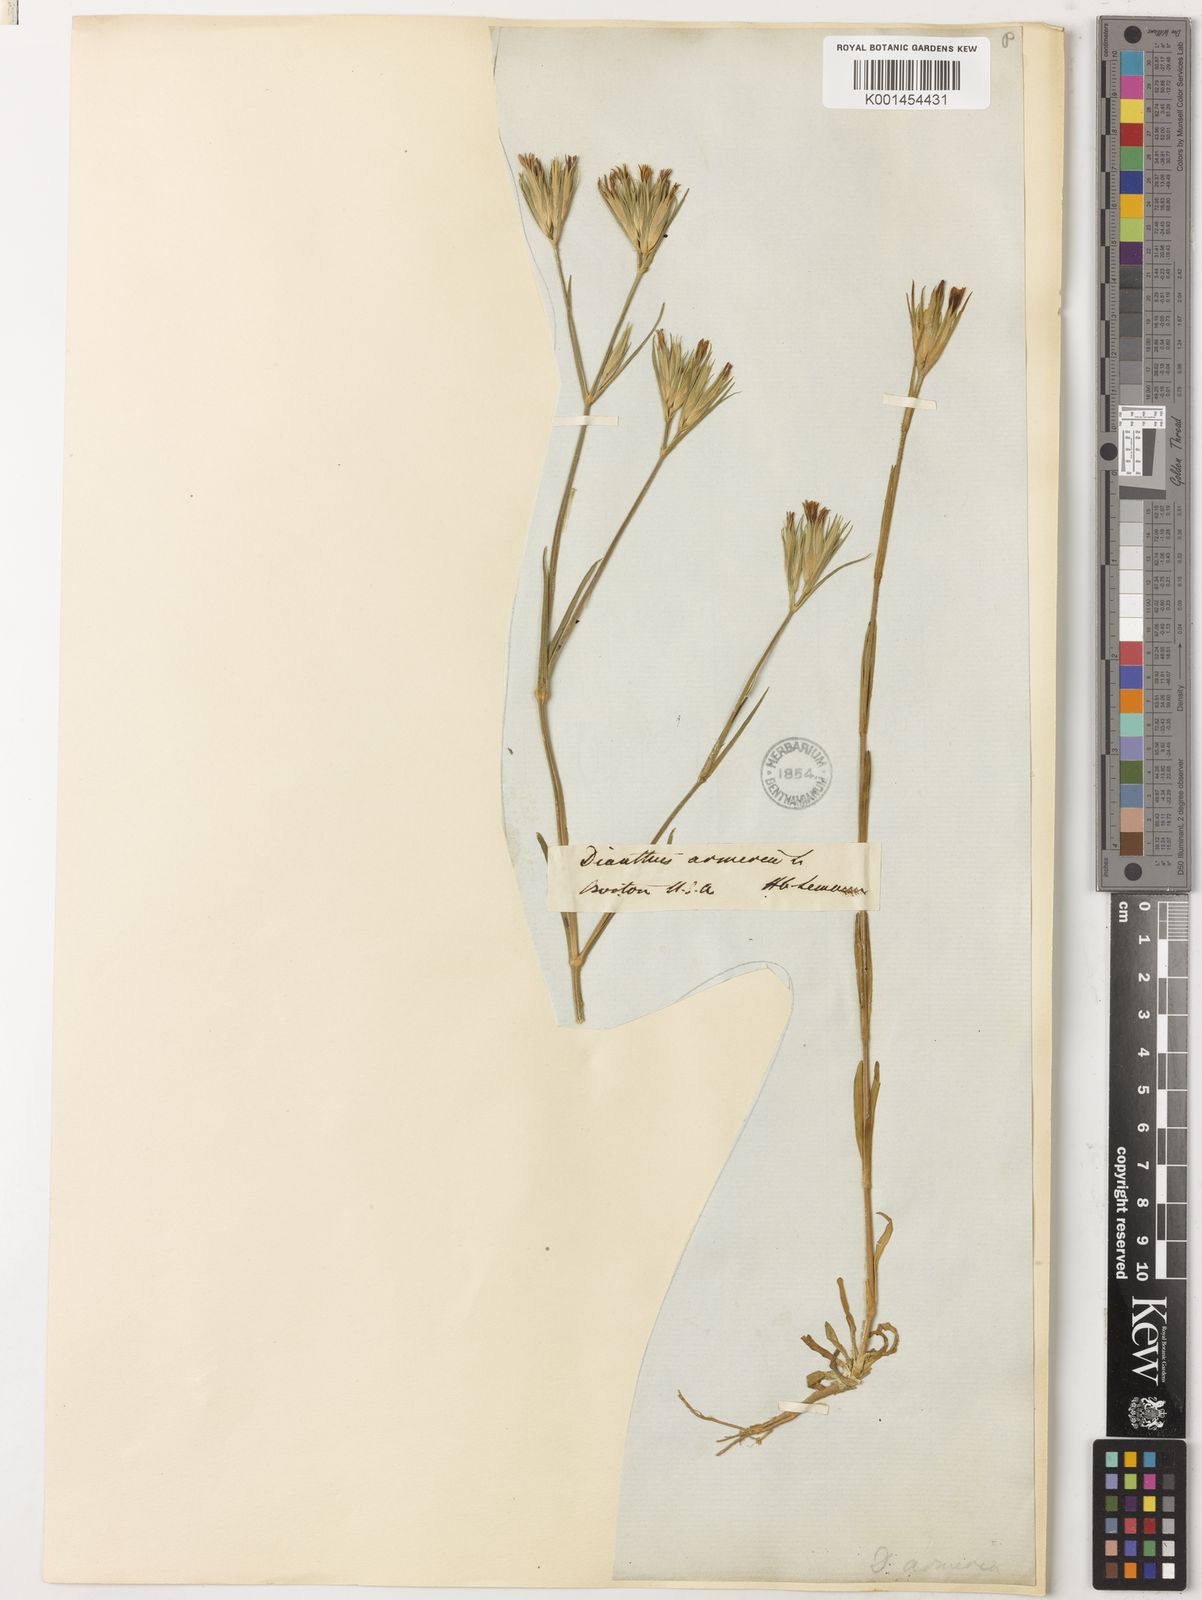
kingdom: Plantae
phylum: Tracheophyta
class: Magnoliopsida
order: Caryophyllales
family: Caryophyllaceae
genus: Dianthus
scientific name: Dianthus armeria
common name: Deptford pink
